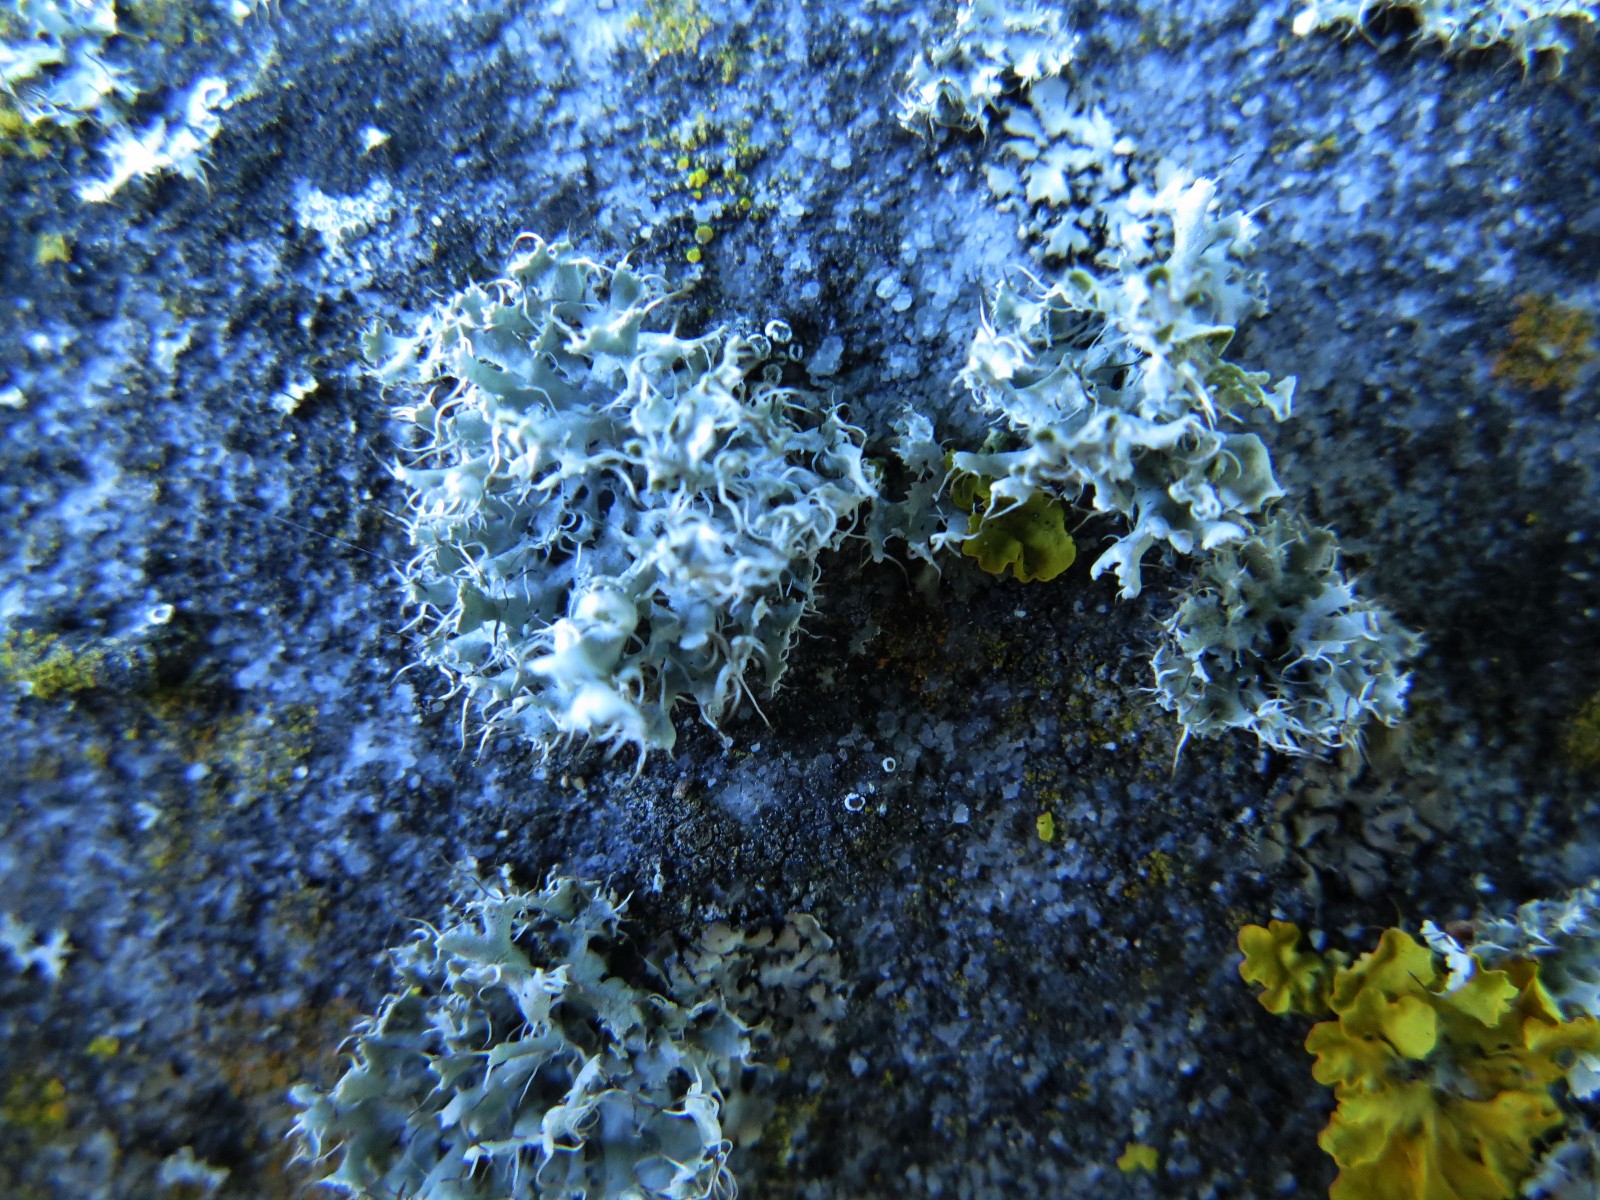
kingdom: Fungi
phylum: Ascomycota
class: Lecanoromycetes
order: Caliciales
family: Physciaceae
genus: Physcia
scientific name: Physcia adscendens
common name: hætte-rosetlav
